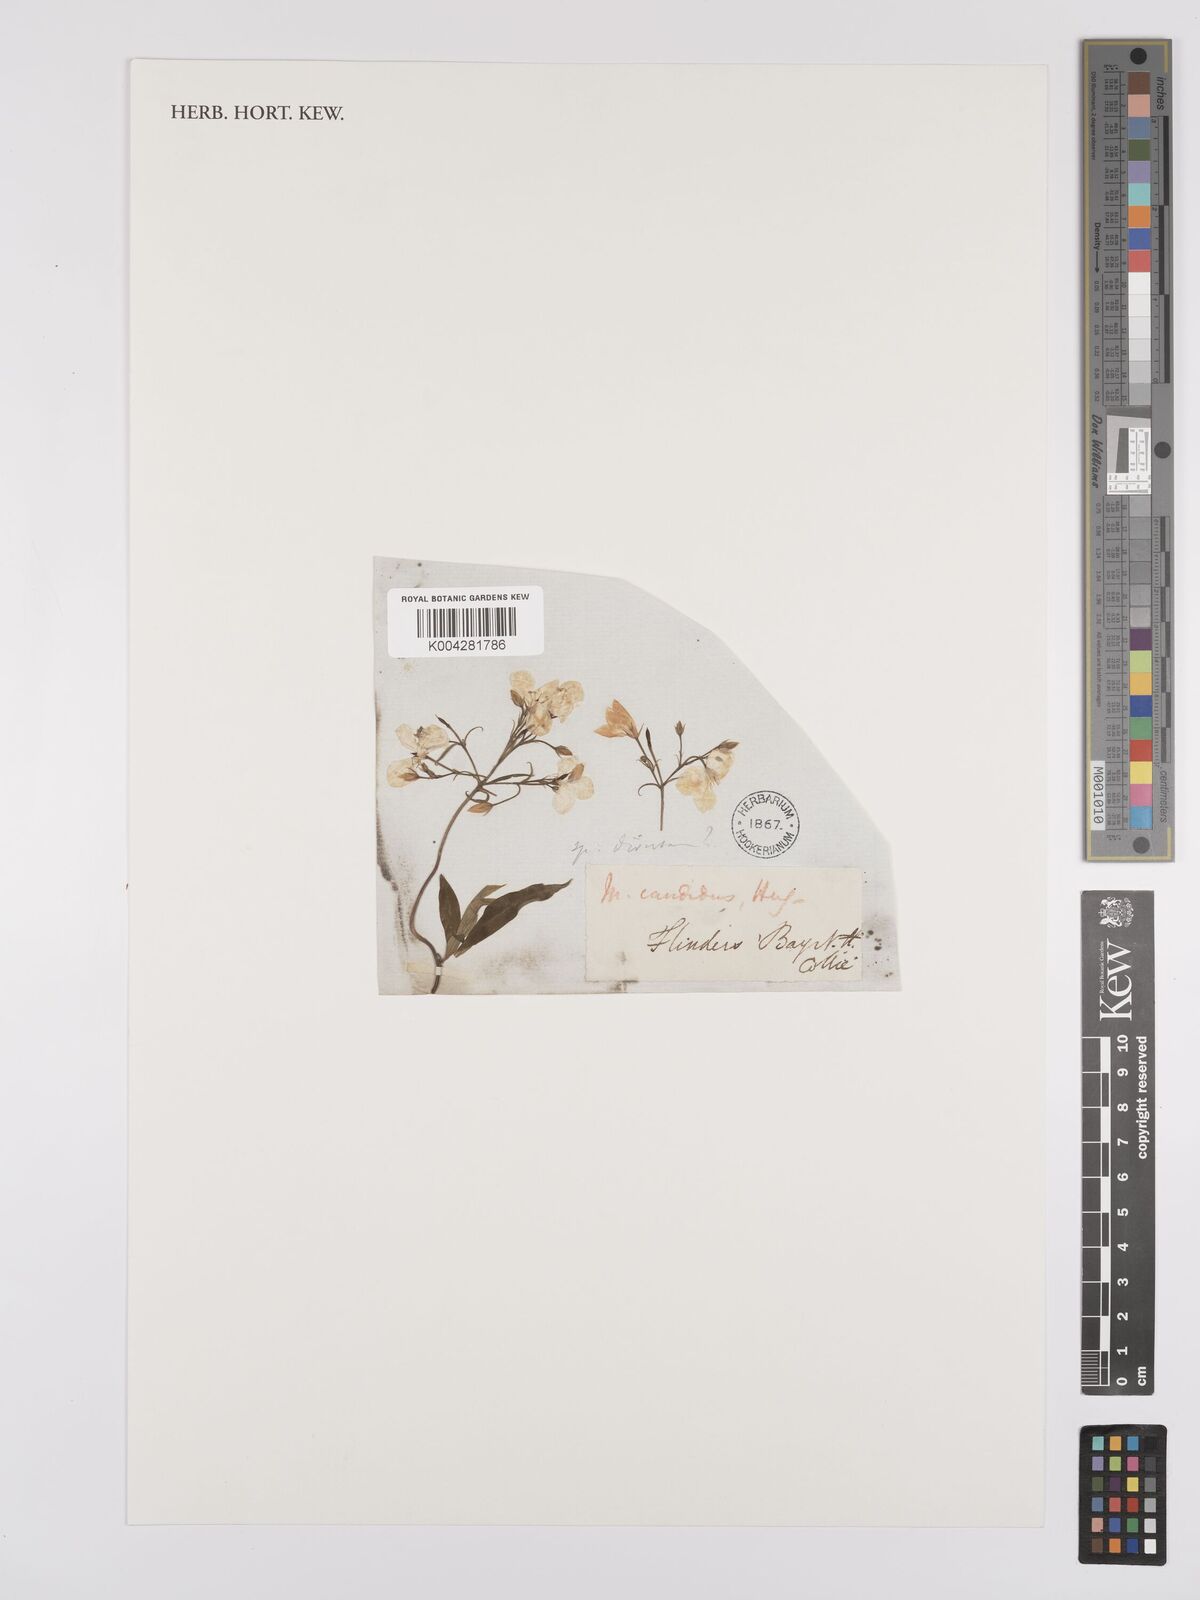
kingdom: Plantae
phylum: Tracheophyta
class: Magnoliopsida
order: Apiales
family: Pittosporaceae
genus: Marianthus
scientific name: Marianthus candidus
